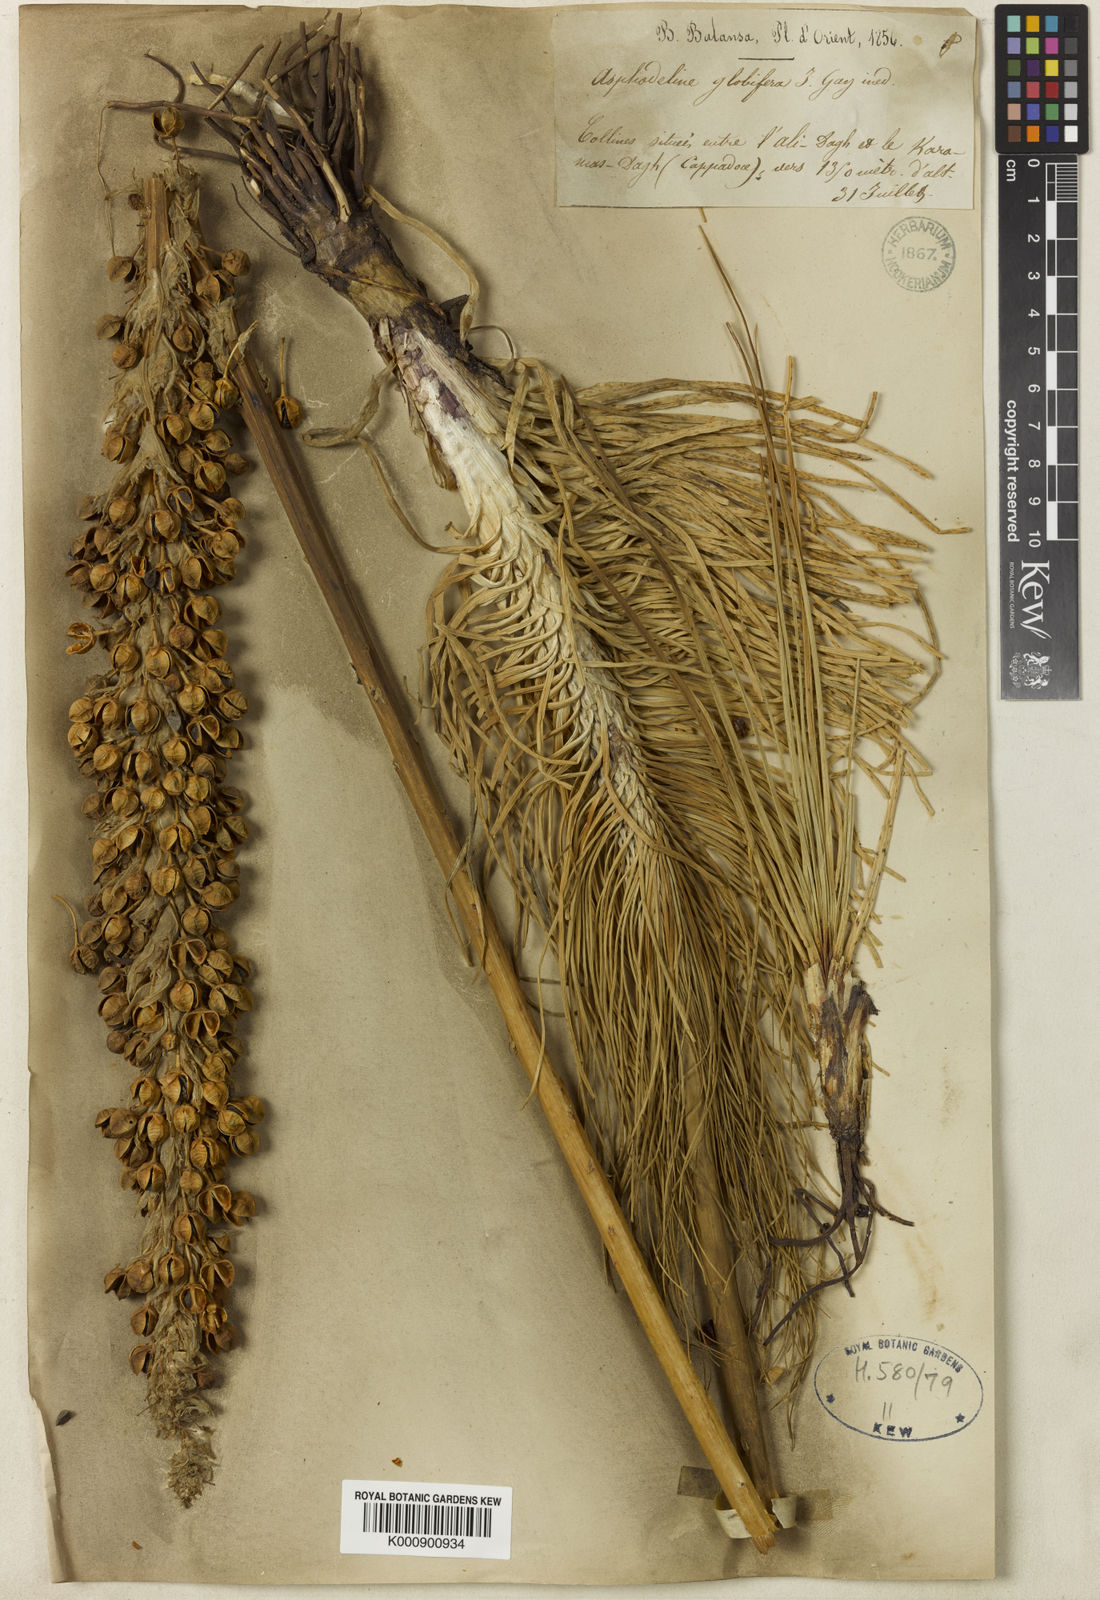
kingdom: Plantae
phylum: Tracheophyta
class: Liliopsida
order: Asparagales
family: Asphodelaceae
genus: Asphodeline
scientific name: Asphodeline globifera
